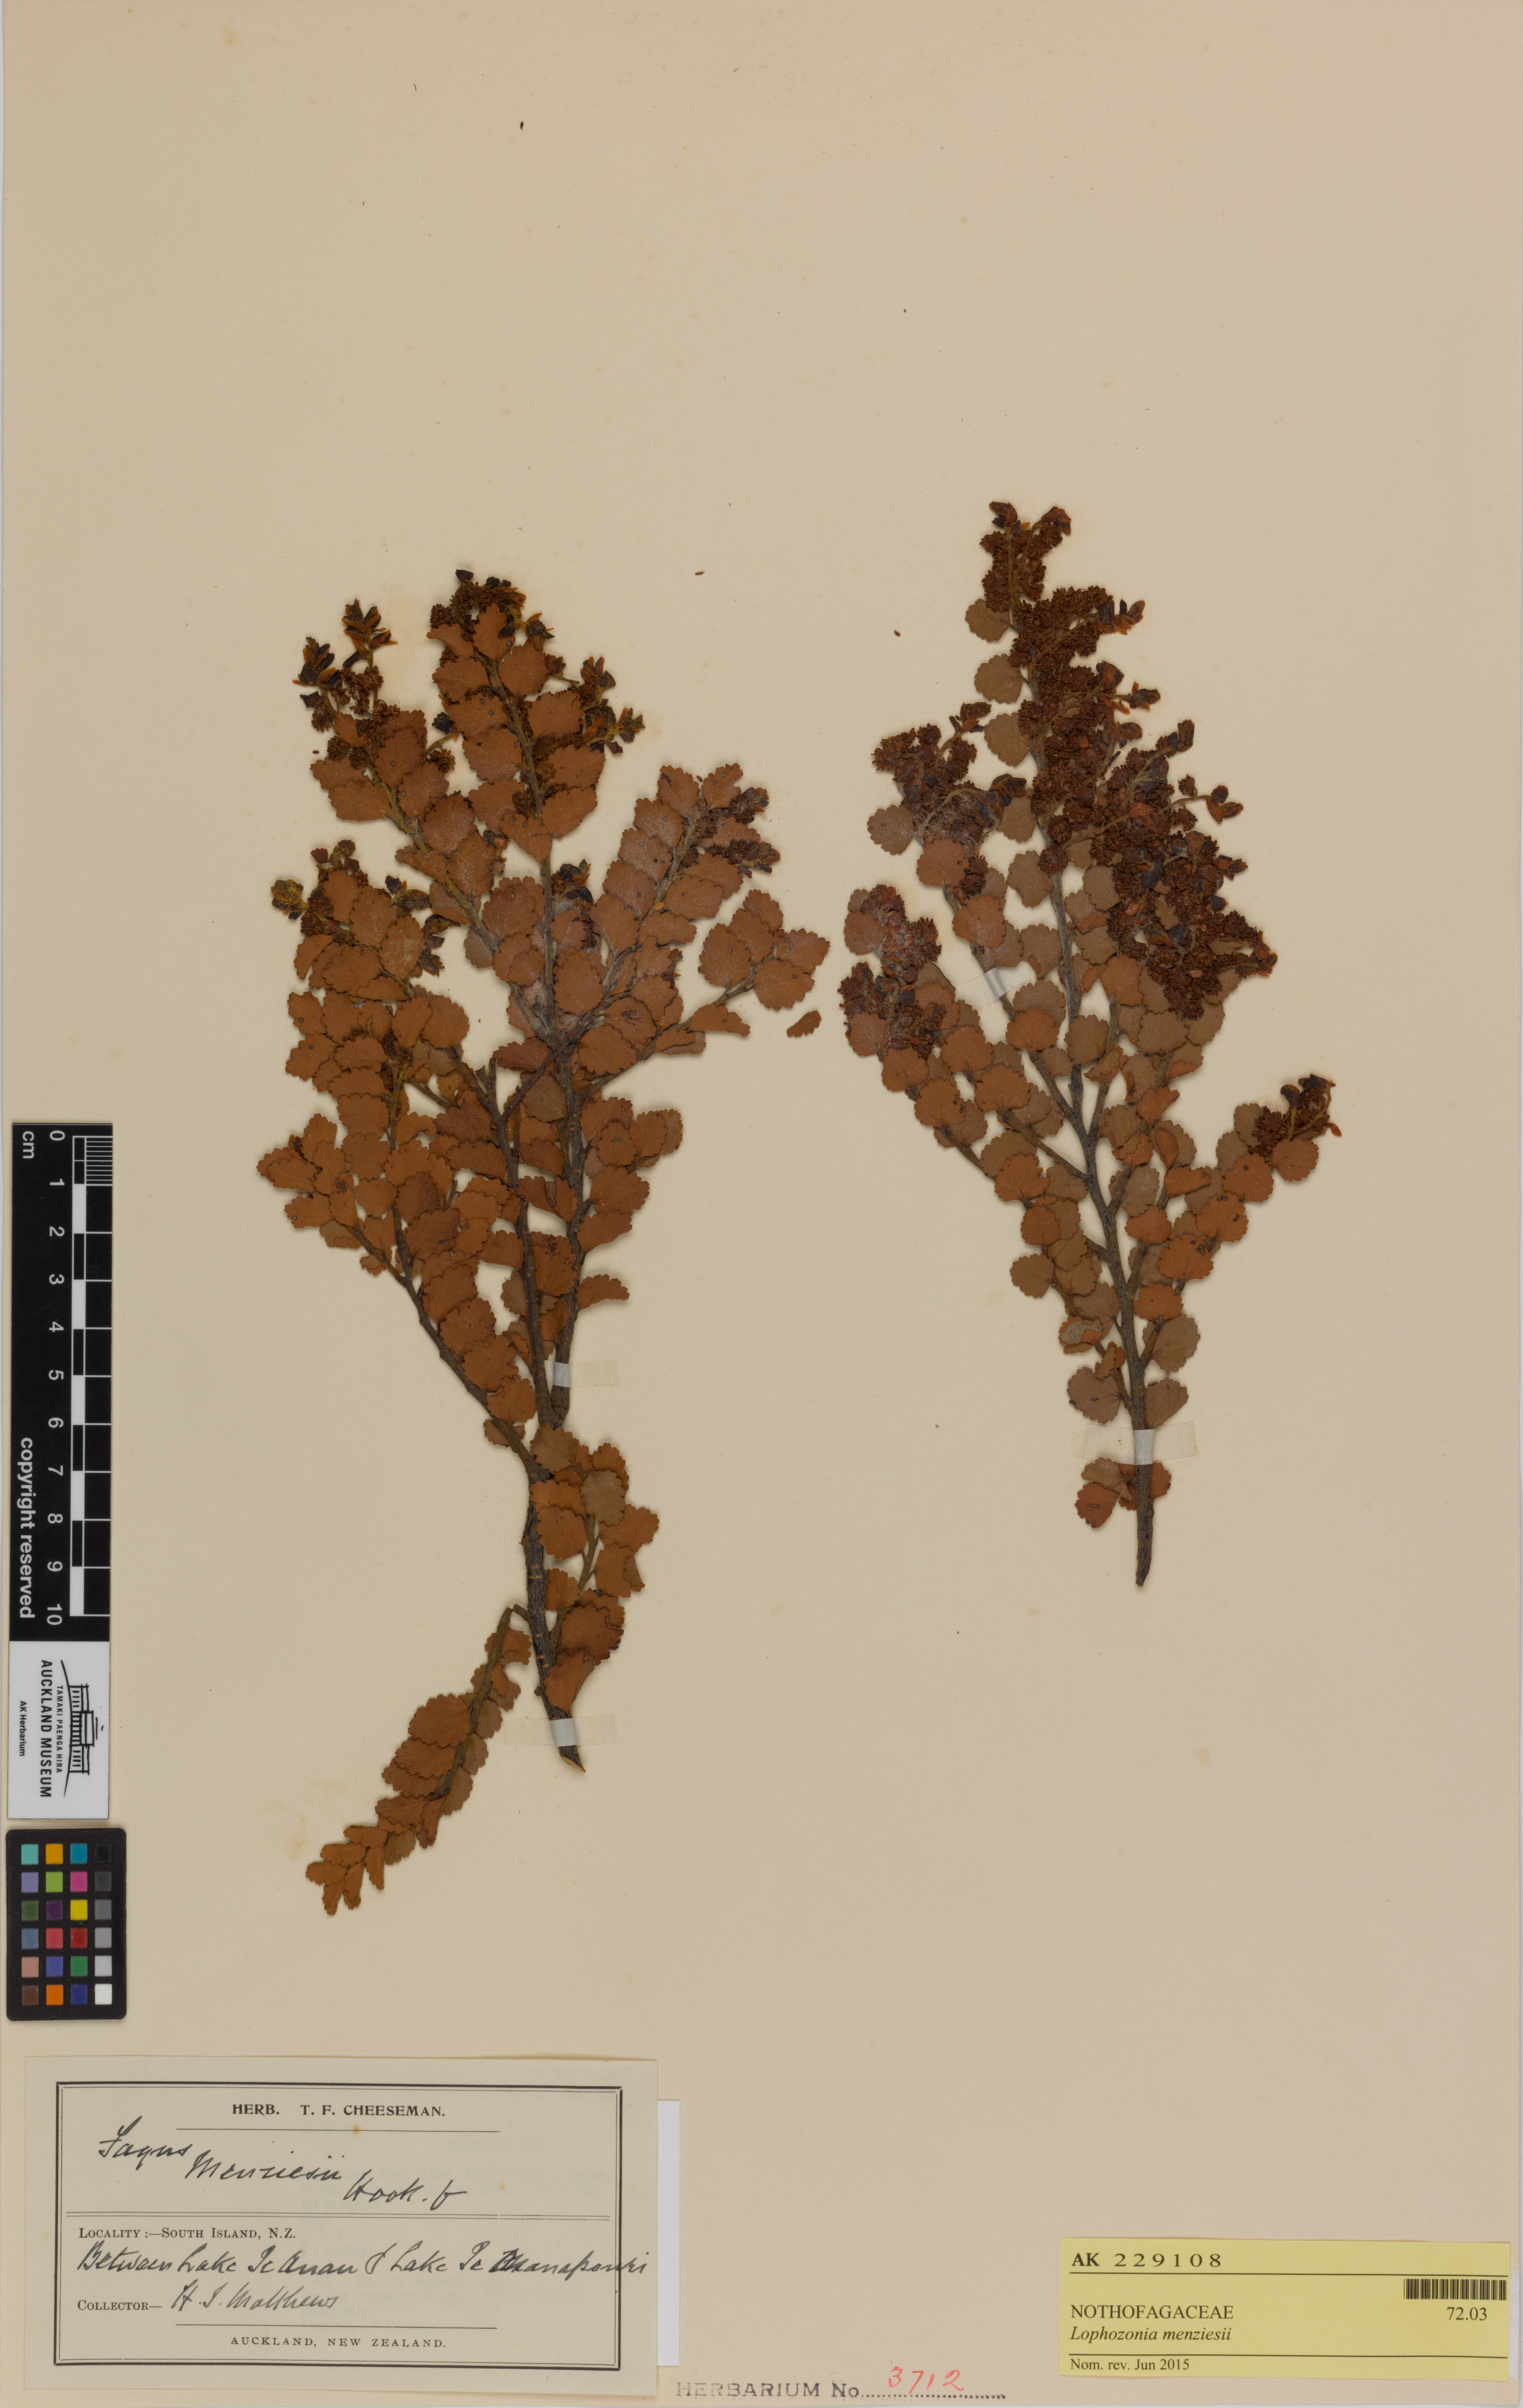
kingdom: Plantae
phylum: Tracheophyta
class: Magnoliopsida
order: Fagales
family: Nothofagaceae
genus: Nothofagus
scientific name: Nothofagus menziesii
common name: Silver beech
